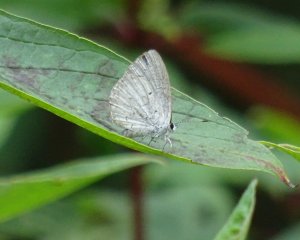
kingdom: Animalia
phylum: Arthropoda
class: Insecta
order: Lepidoptera
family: Lycaenidae
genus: Cyaniris
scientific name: Cyaniris neglecta
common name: Summer Azure
